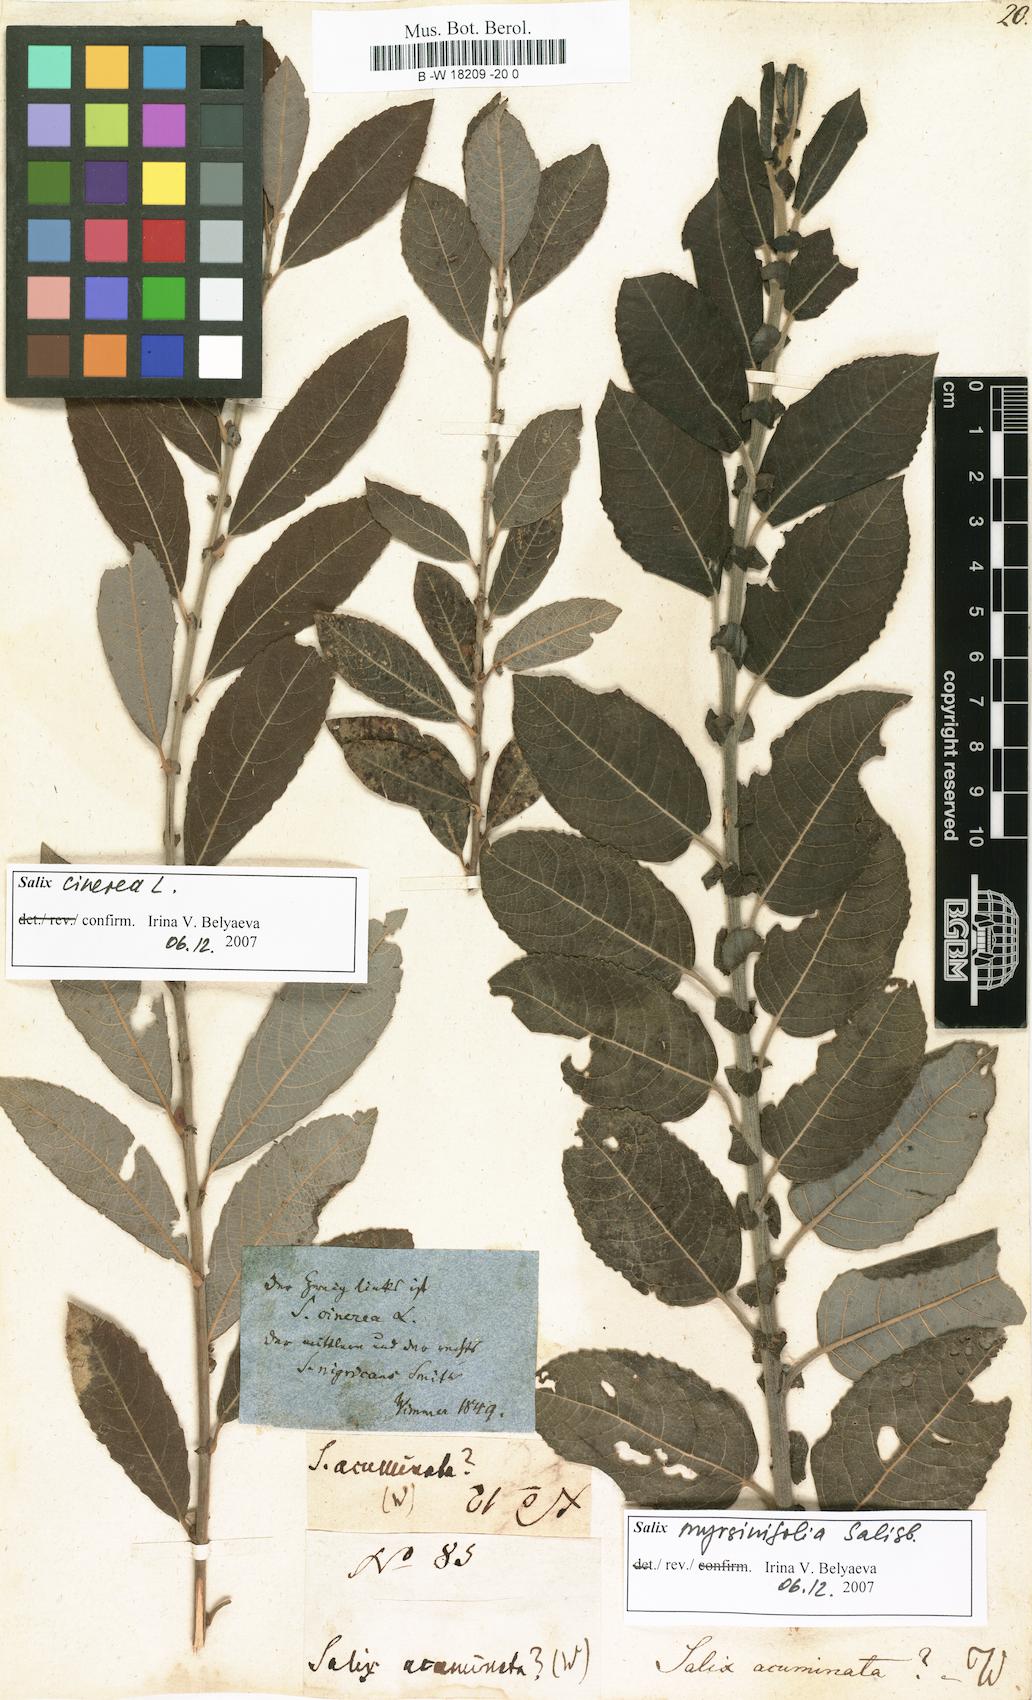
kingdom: Plantae
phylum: Tracheophyta
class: Magnoliopsida
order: Malpighiales
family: Salicaceae
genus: Salix
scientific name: Salix
